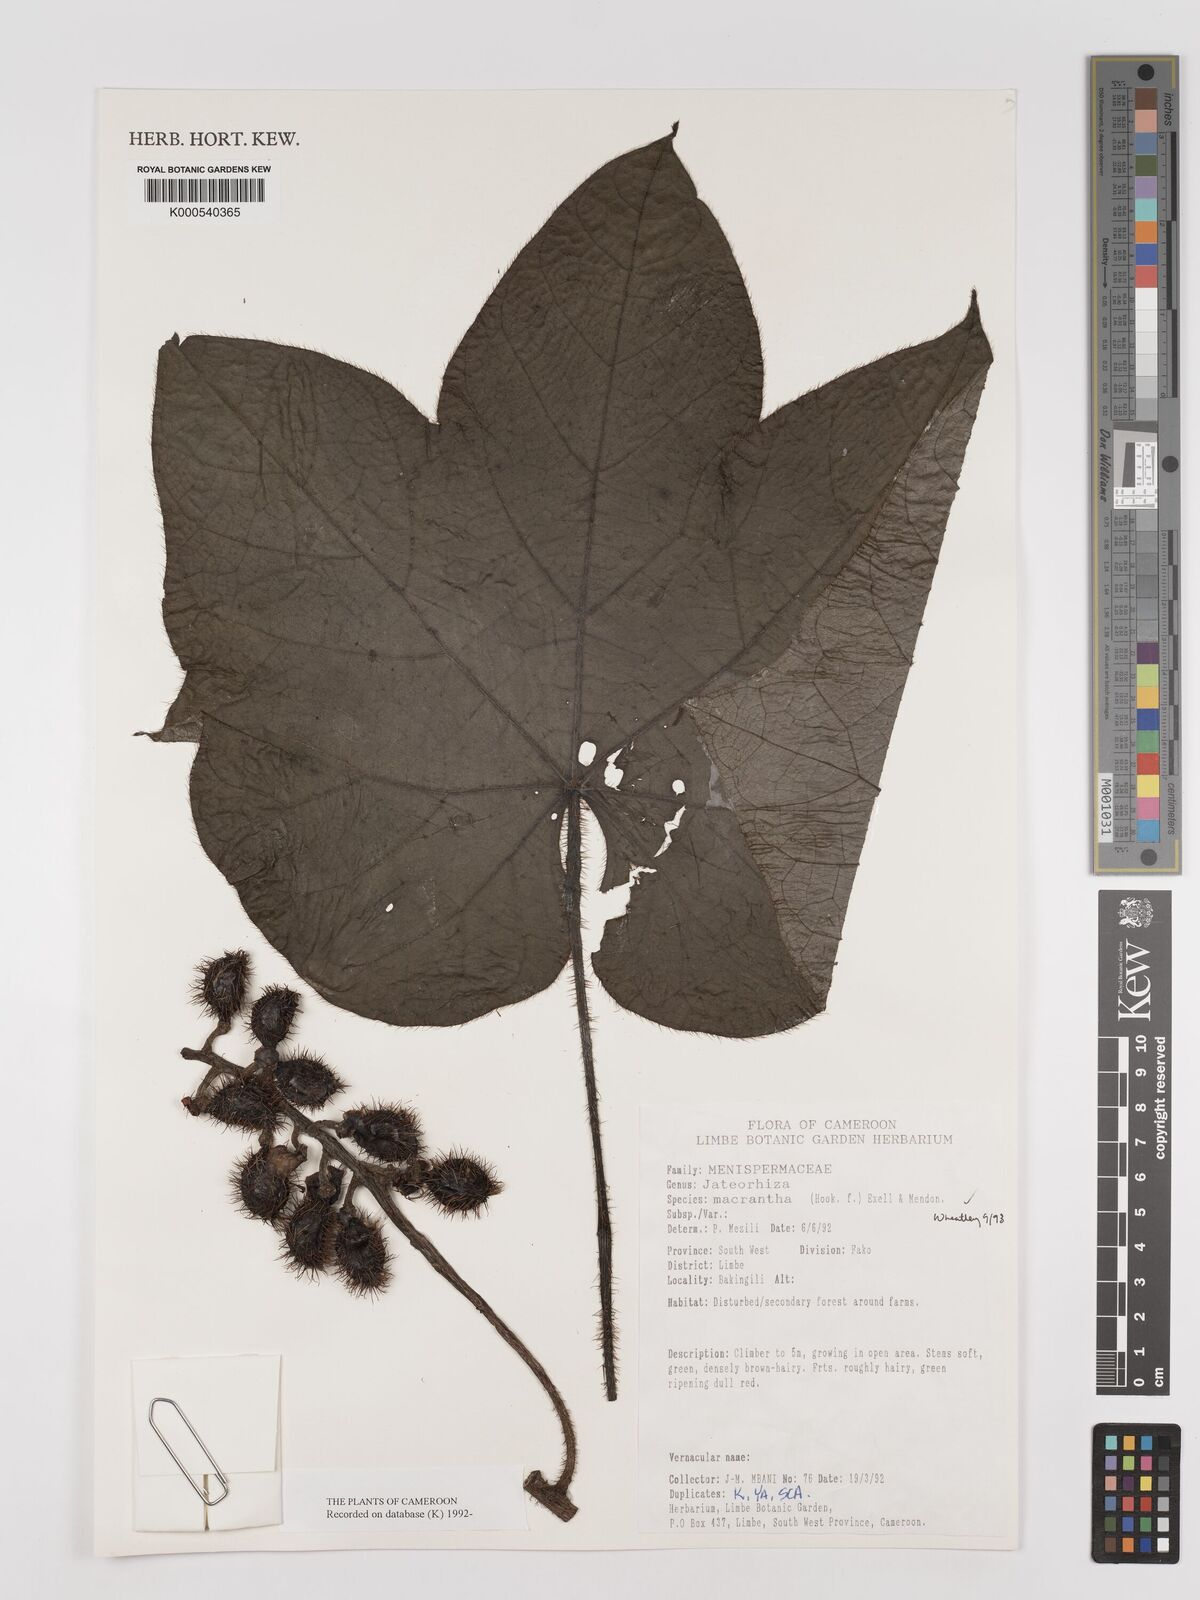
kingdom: Plantae
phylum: Tracheophyta
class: Magnoliopsida
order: Ranunculales
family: Menispermaceae
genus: Jateorhiza
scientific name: Jateorhiza
